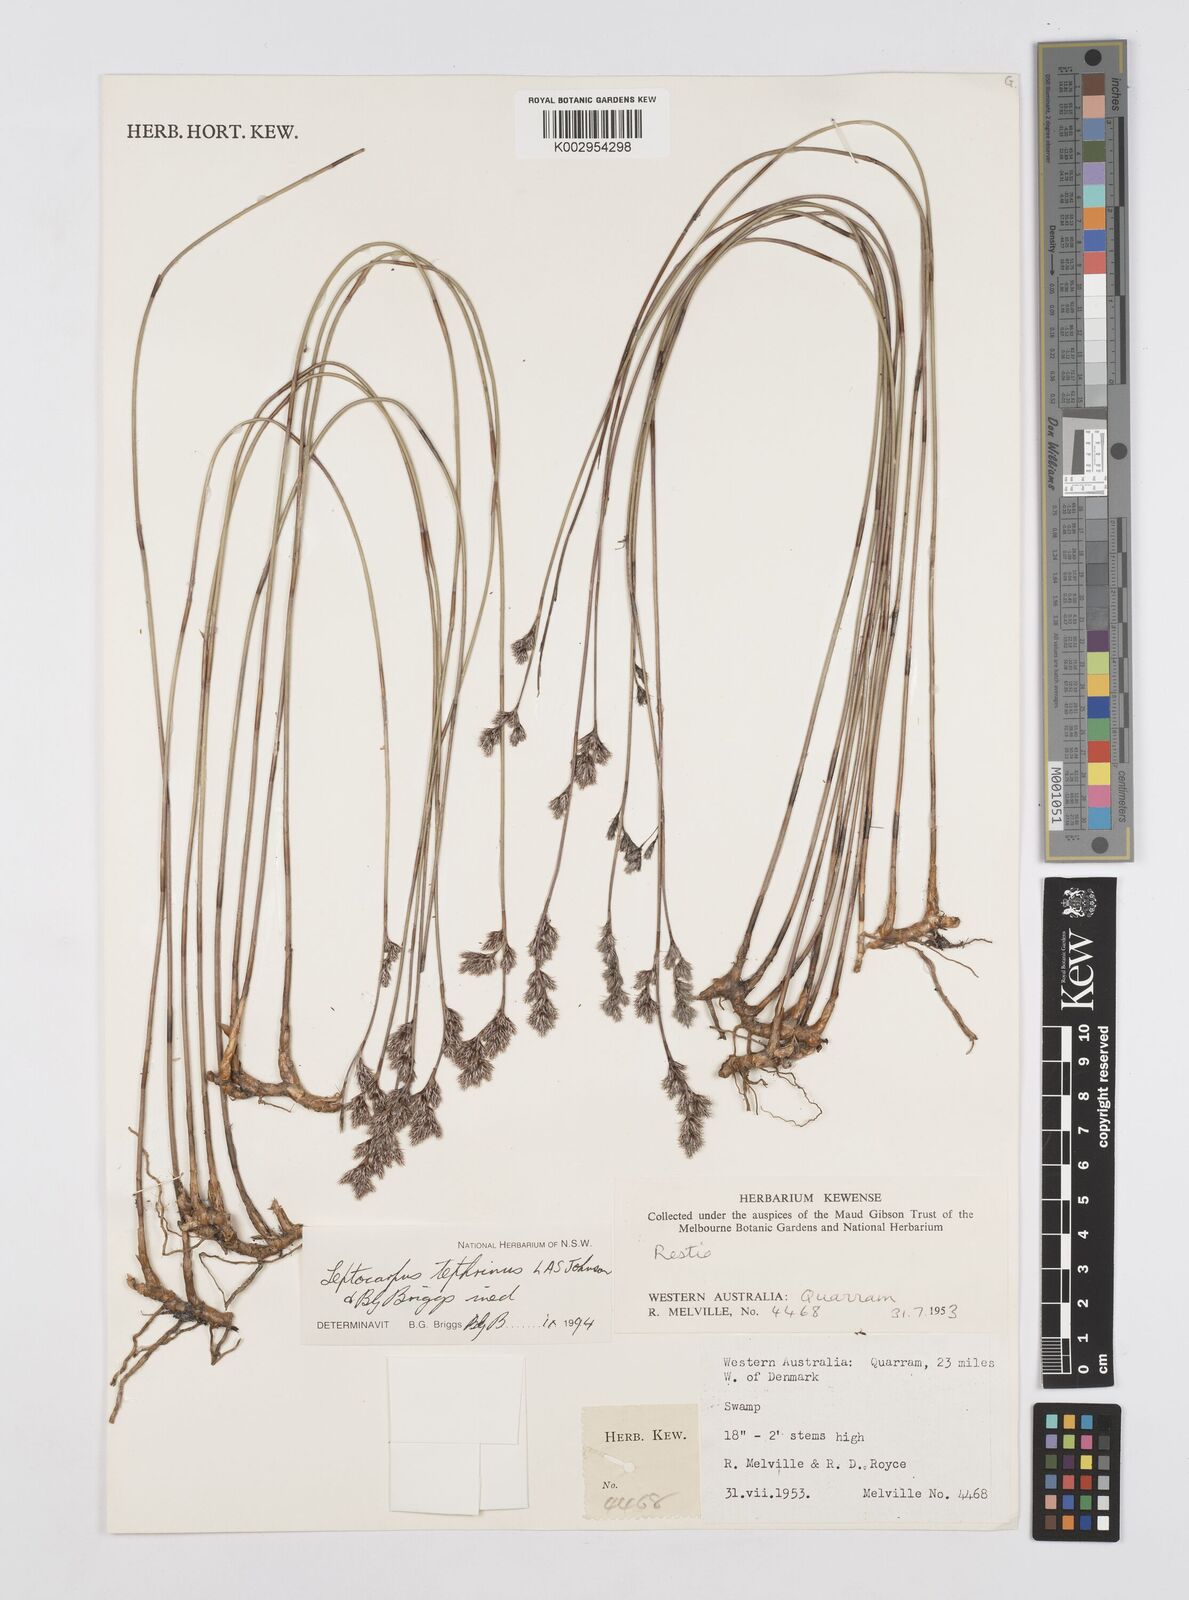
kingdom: Plantae
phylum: Tracheophyta
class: Liliopsida
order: Poales
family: Restionaceae
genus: Leptocarpus
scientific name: Leptocarpus tephrinus
